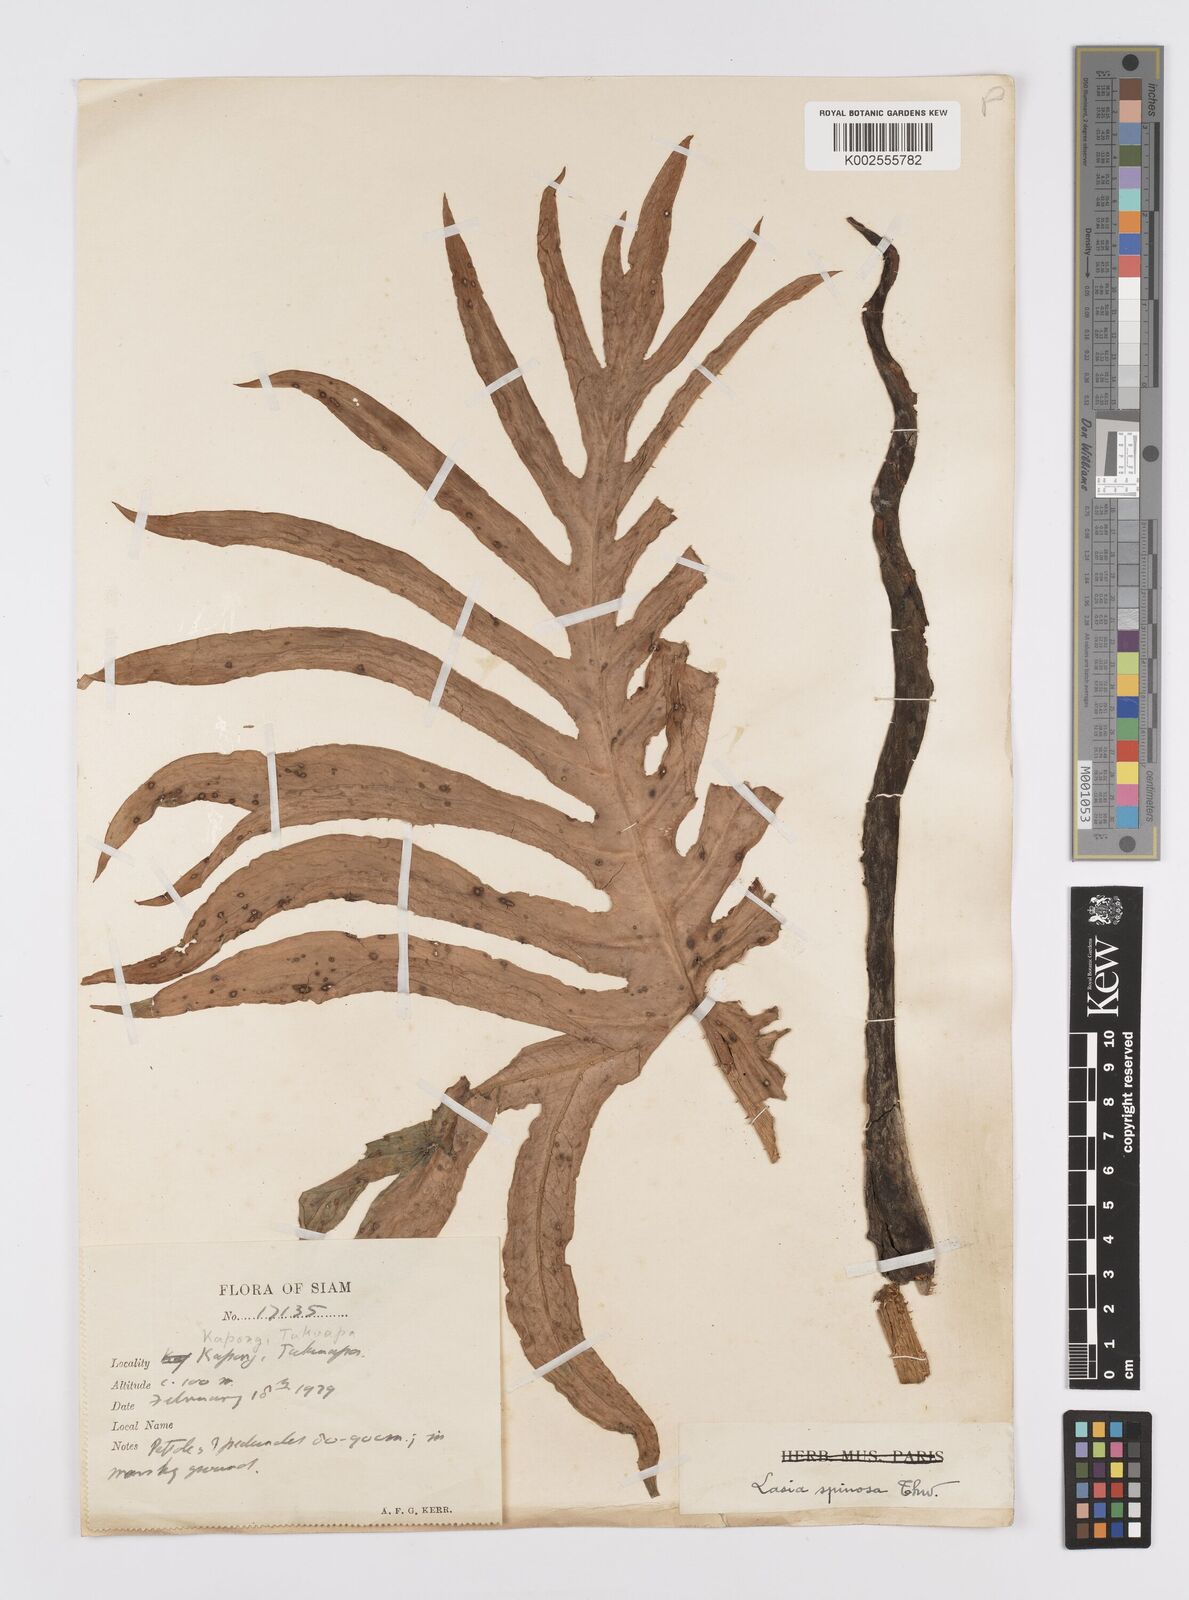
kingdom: Plantae
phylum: Tracheophyta
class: Liliopsida
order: Alismatales
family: Araceae
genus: Lasia
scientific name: Lasia spinosa
